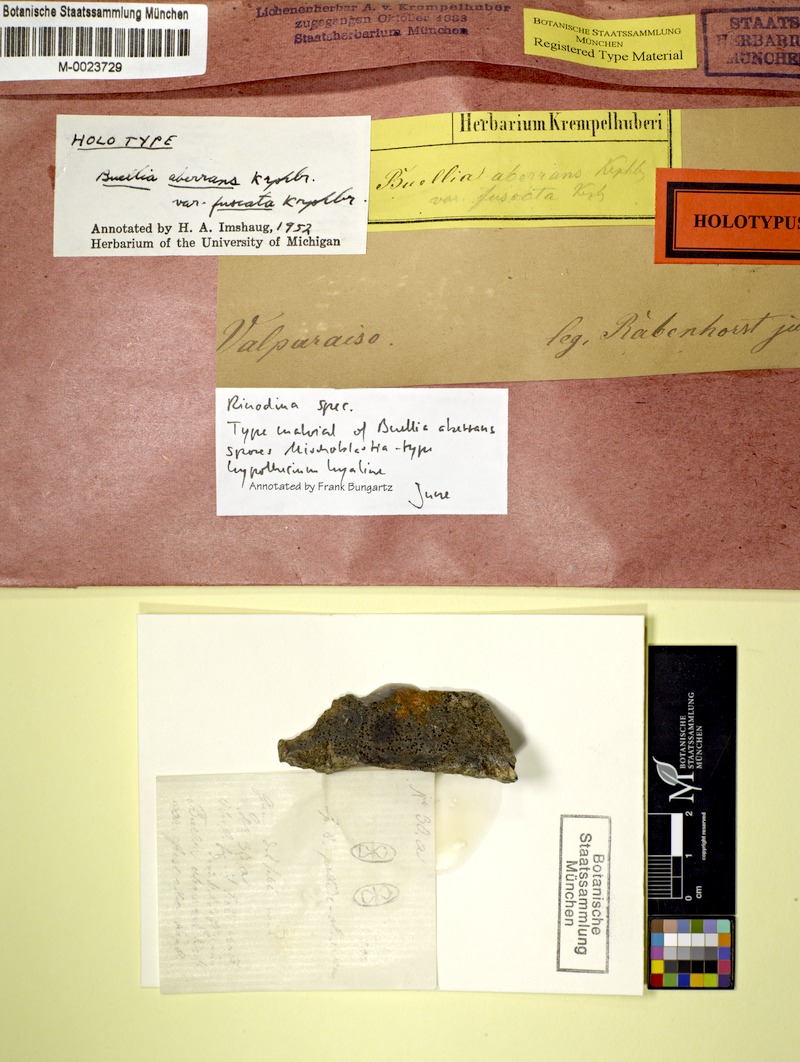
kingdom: Fungi
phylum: Ascomycota
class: Lecanoromycetes
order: Caliciales
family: Caliciaceae
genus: Buellia
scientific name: Buellia
